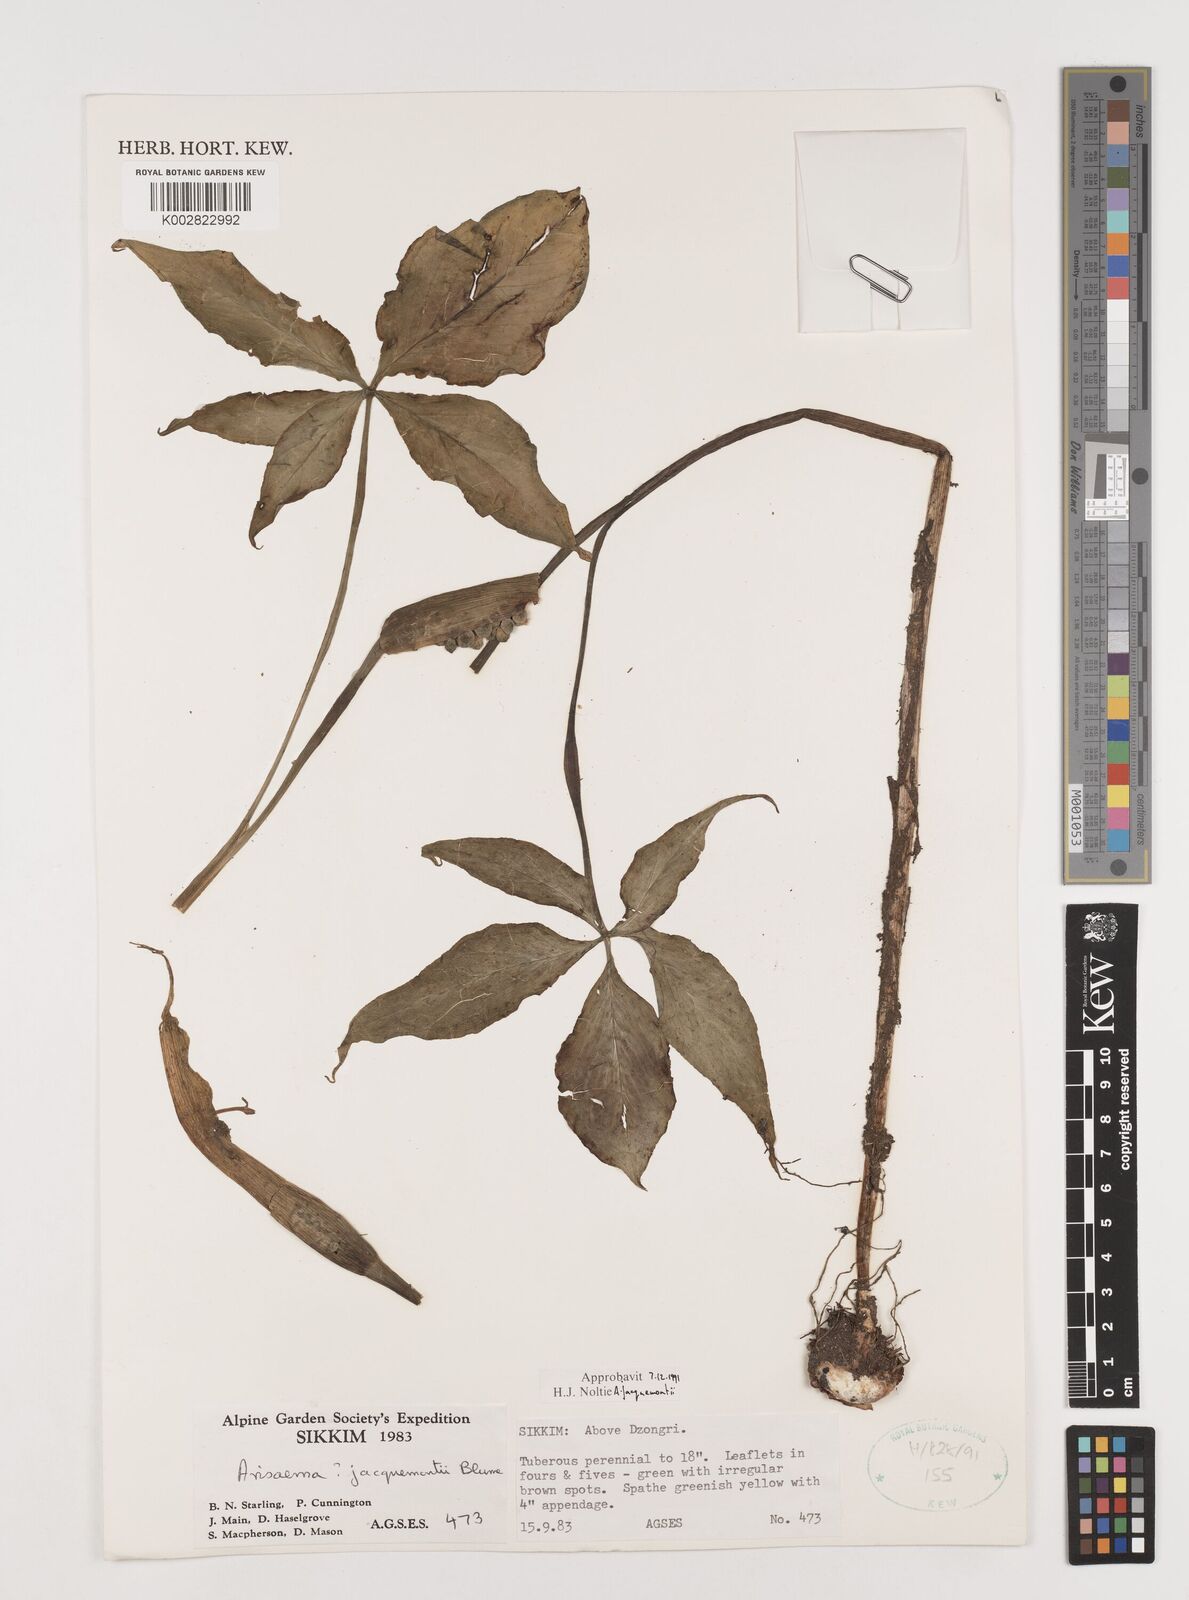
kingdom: Plantae
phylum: Tracheophyta
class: Liliopsida
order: Alismatales
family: Araceae
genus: Arisaema
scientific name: Arisaema jacquemontii
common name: Jacquemont's cobra-lily
